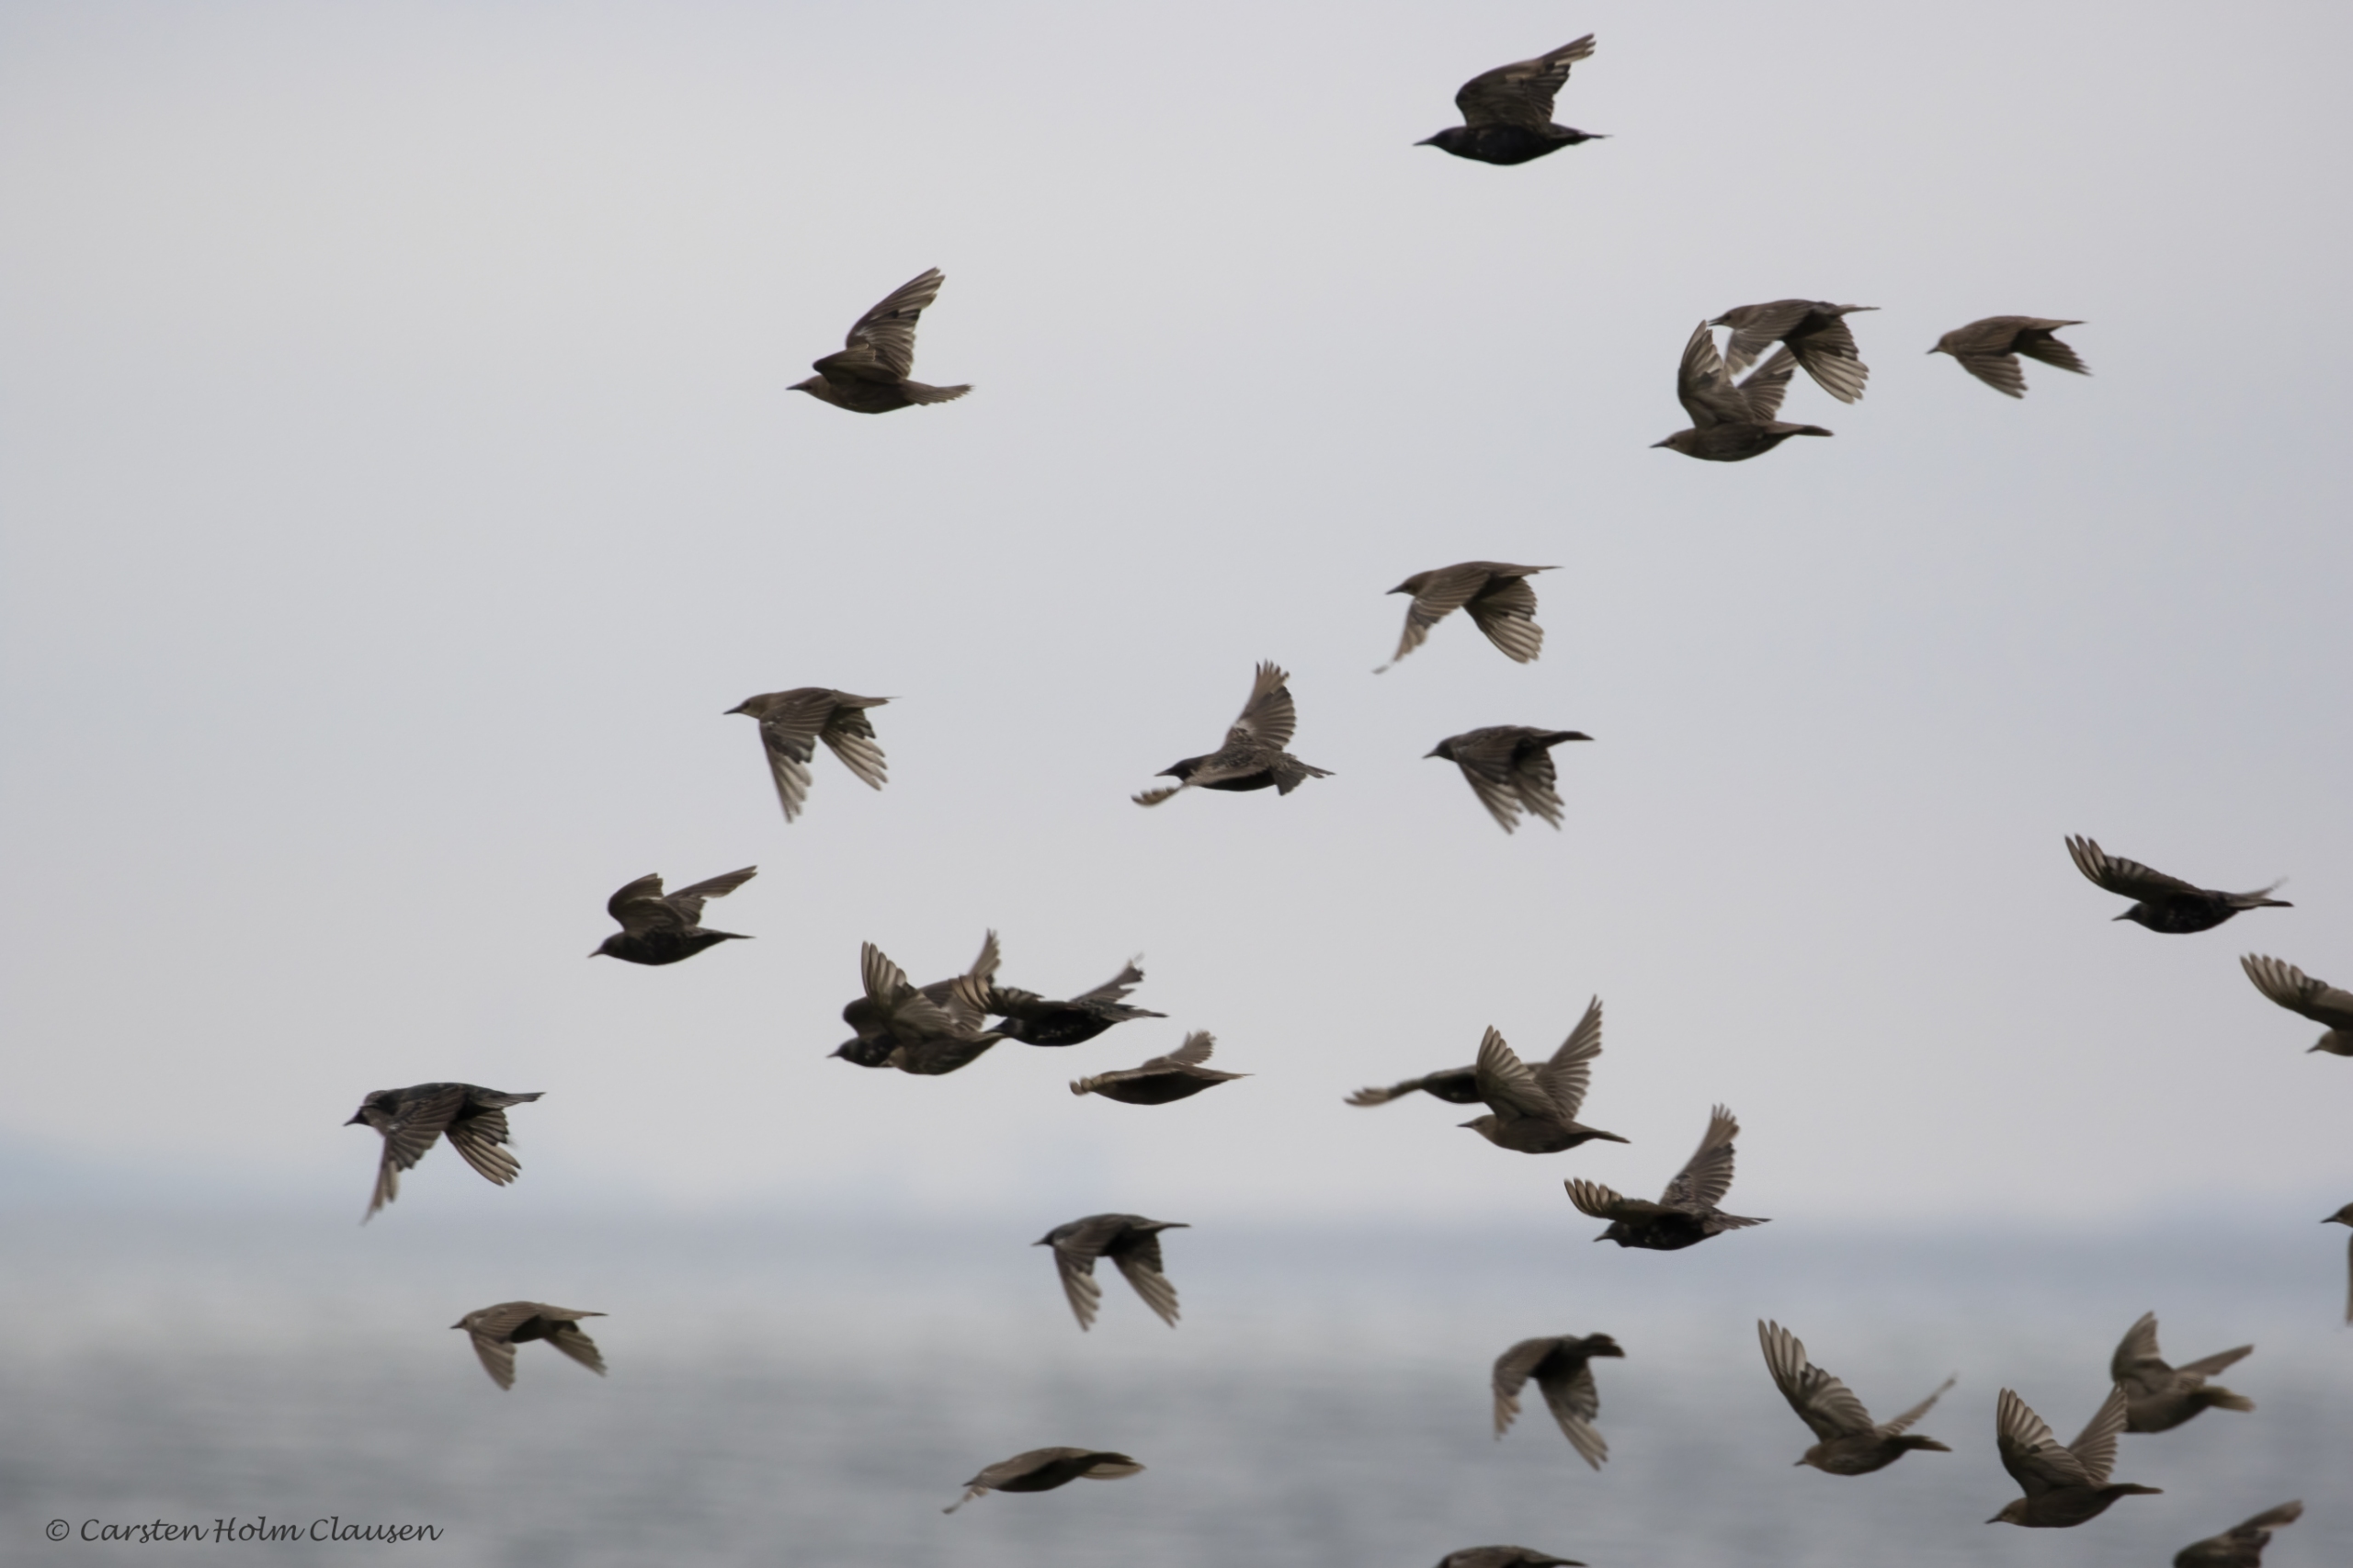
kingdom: Animalia
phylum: Chordata
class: Aves
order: Passeriformes
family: Sturnidae
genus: Sturnus
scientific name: Sturnus vulgaris
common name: Stær
